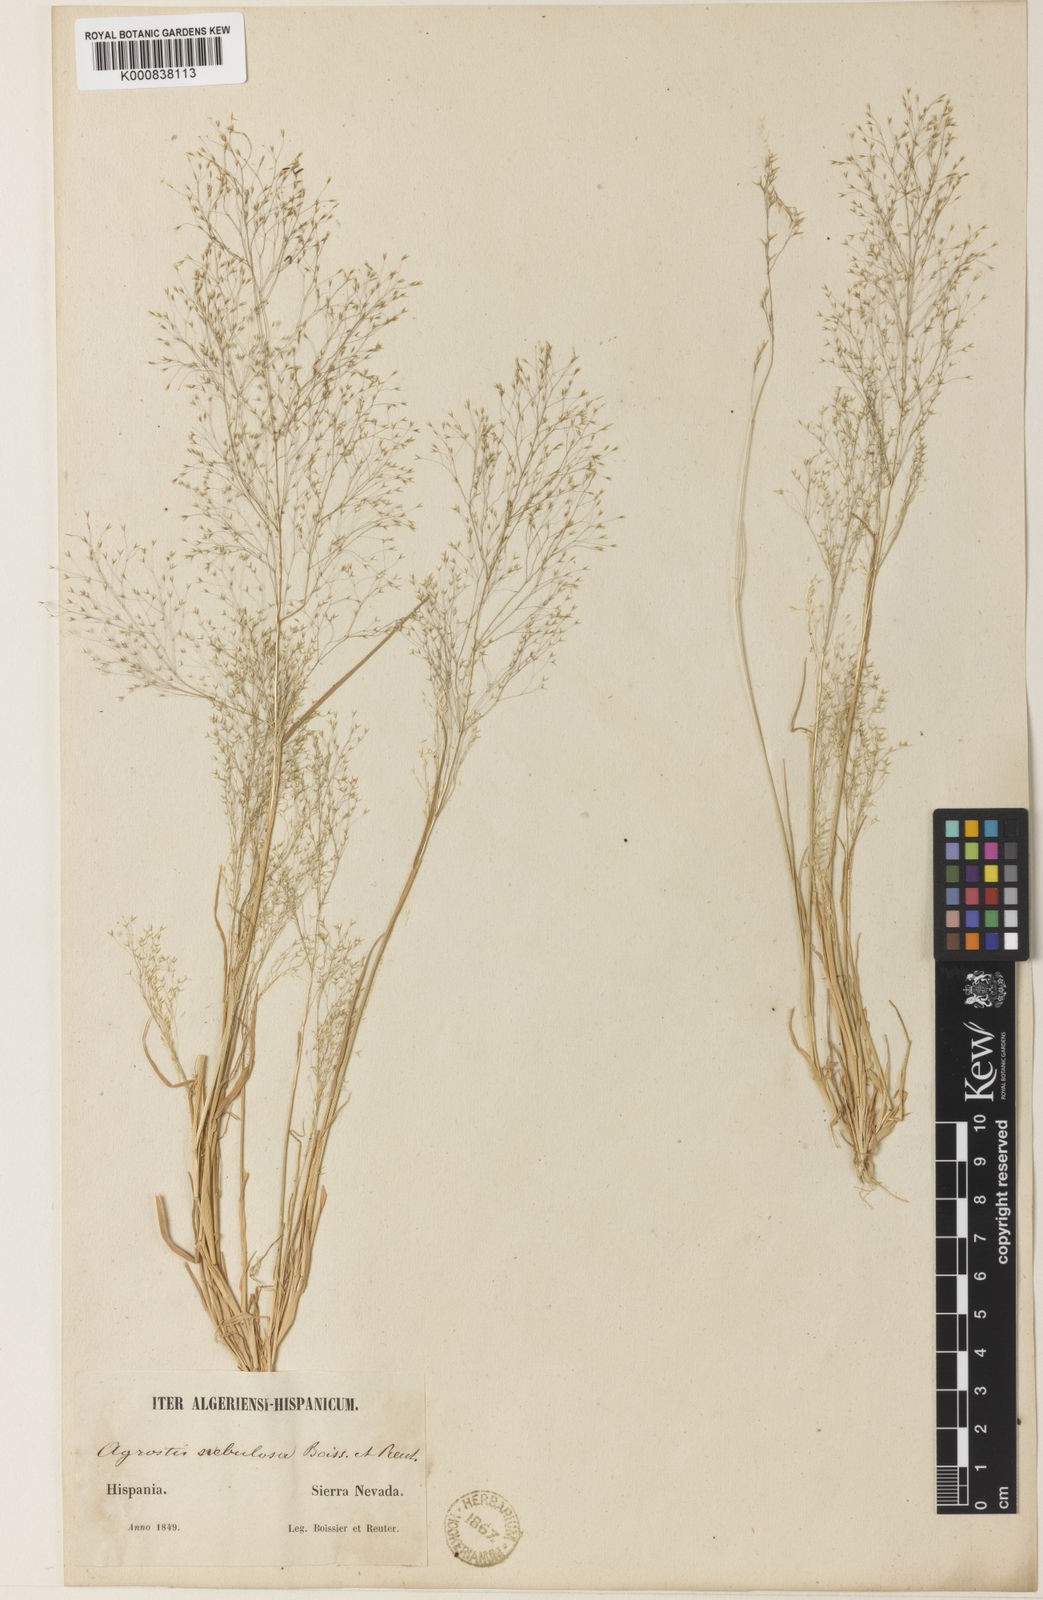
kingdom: Plantae
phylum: Tracheophyta
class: Liliopsida
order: Poales
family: Poaceae
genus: Agrostis
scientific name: Agrostis nebulosa
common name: Cloud grass
